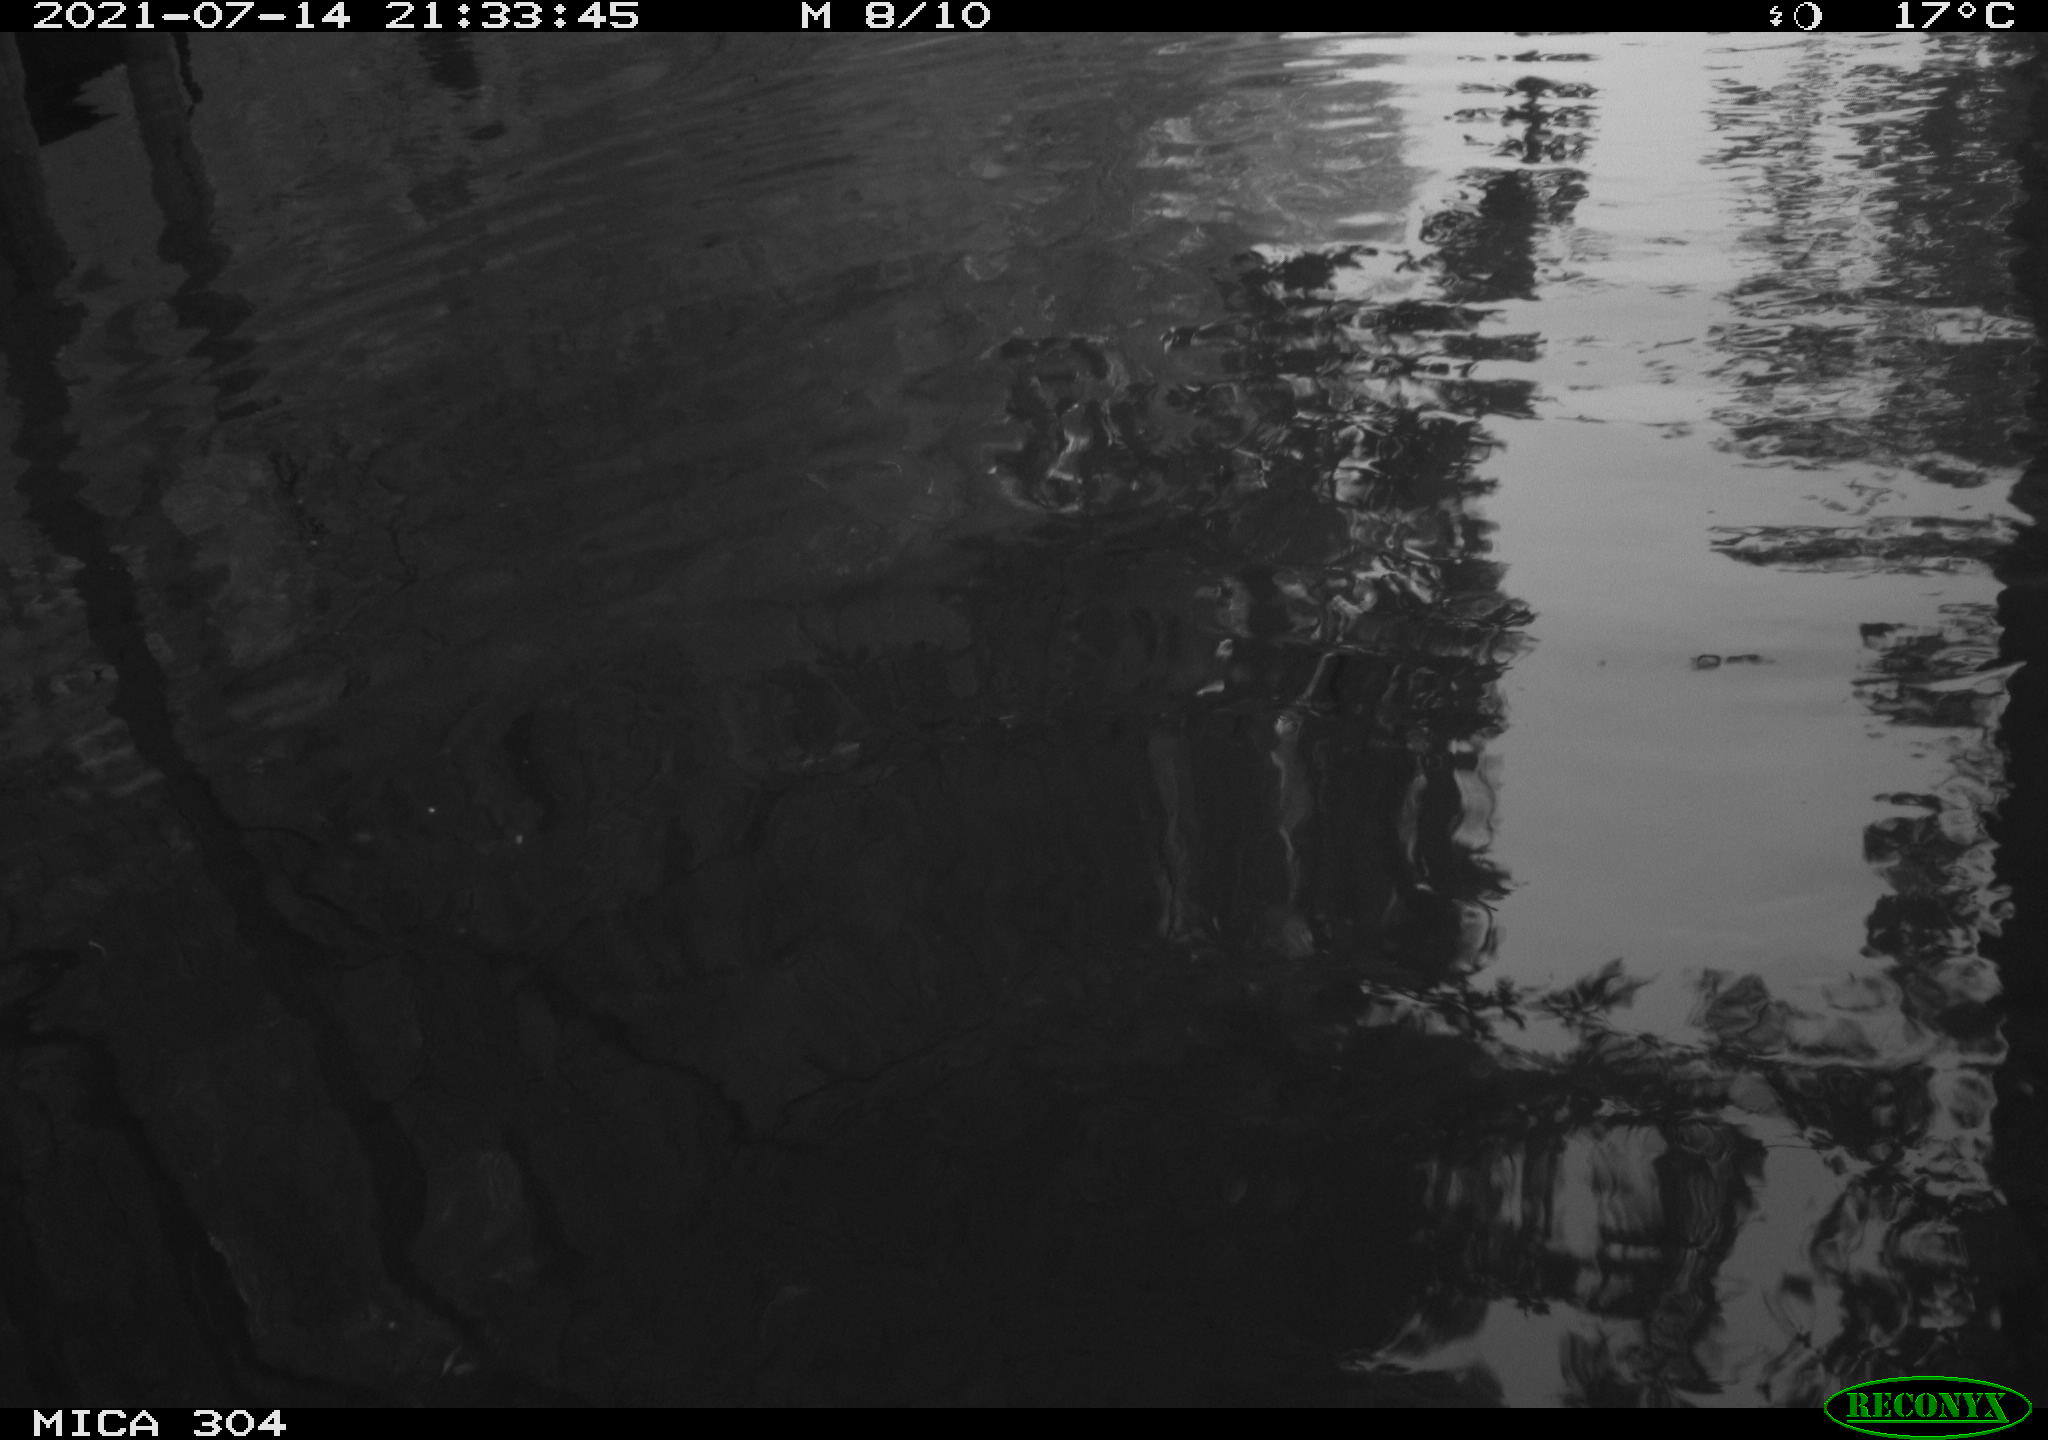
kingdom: Animalia
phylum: Chordata
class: Aves
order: Anseriformes
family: Anatidae
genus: Anas
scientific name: Anas platyrhynchos
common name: Mallard
